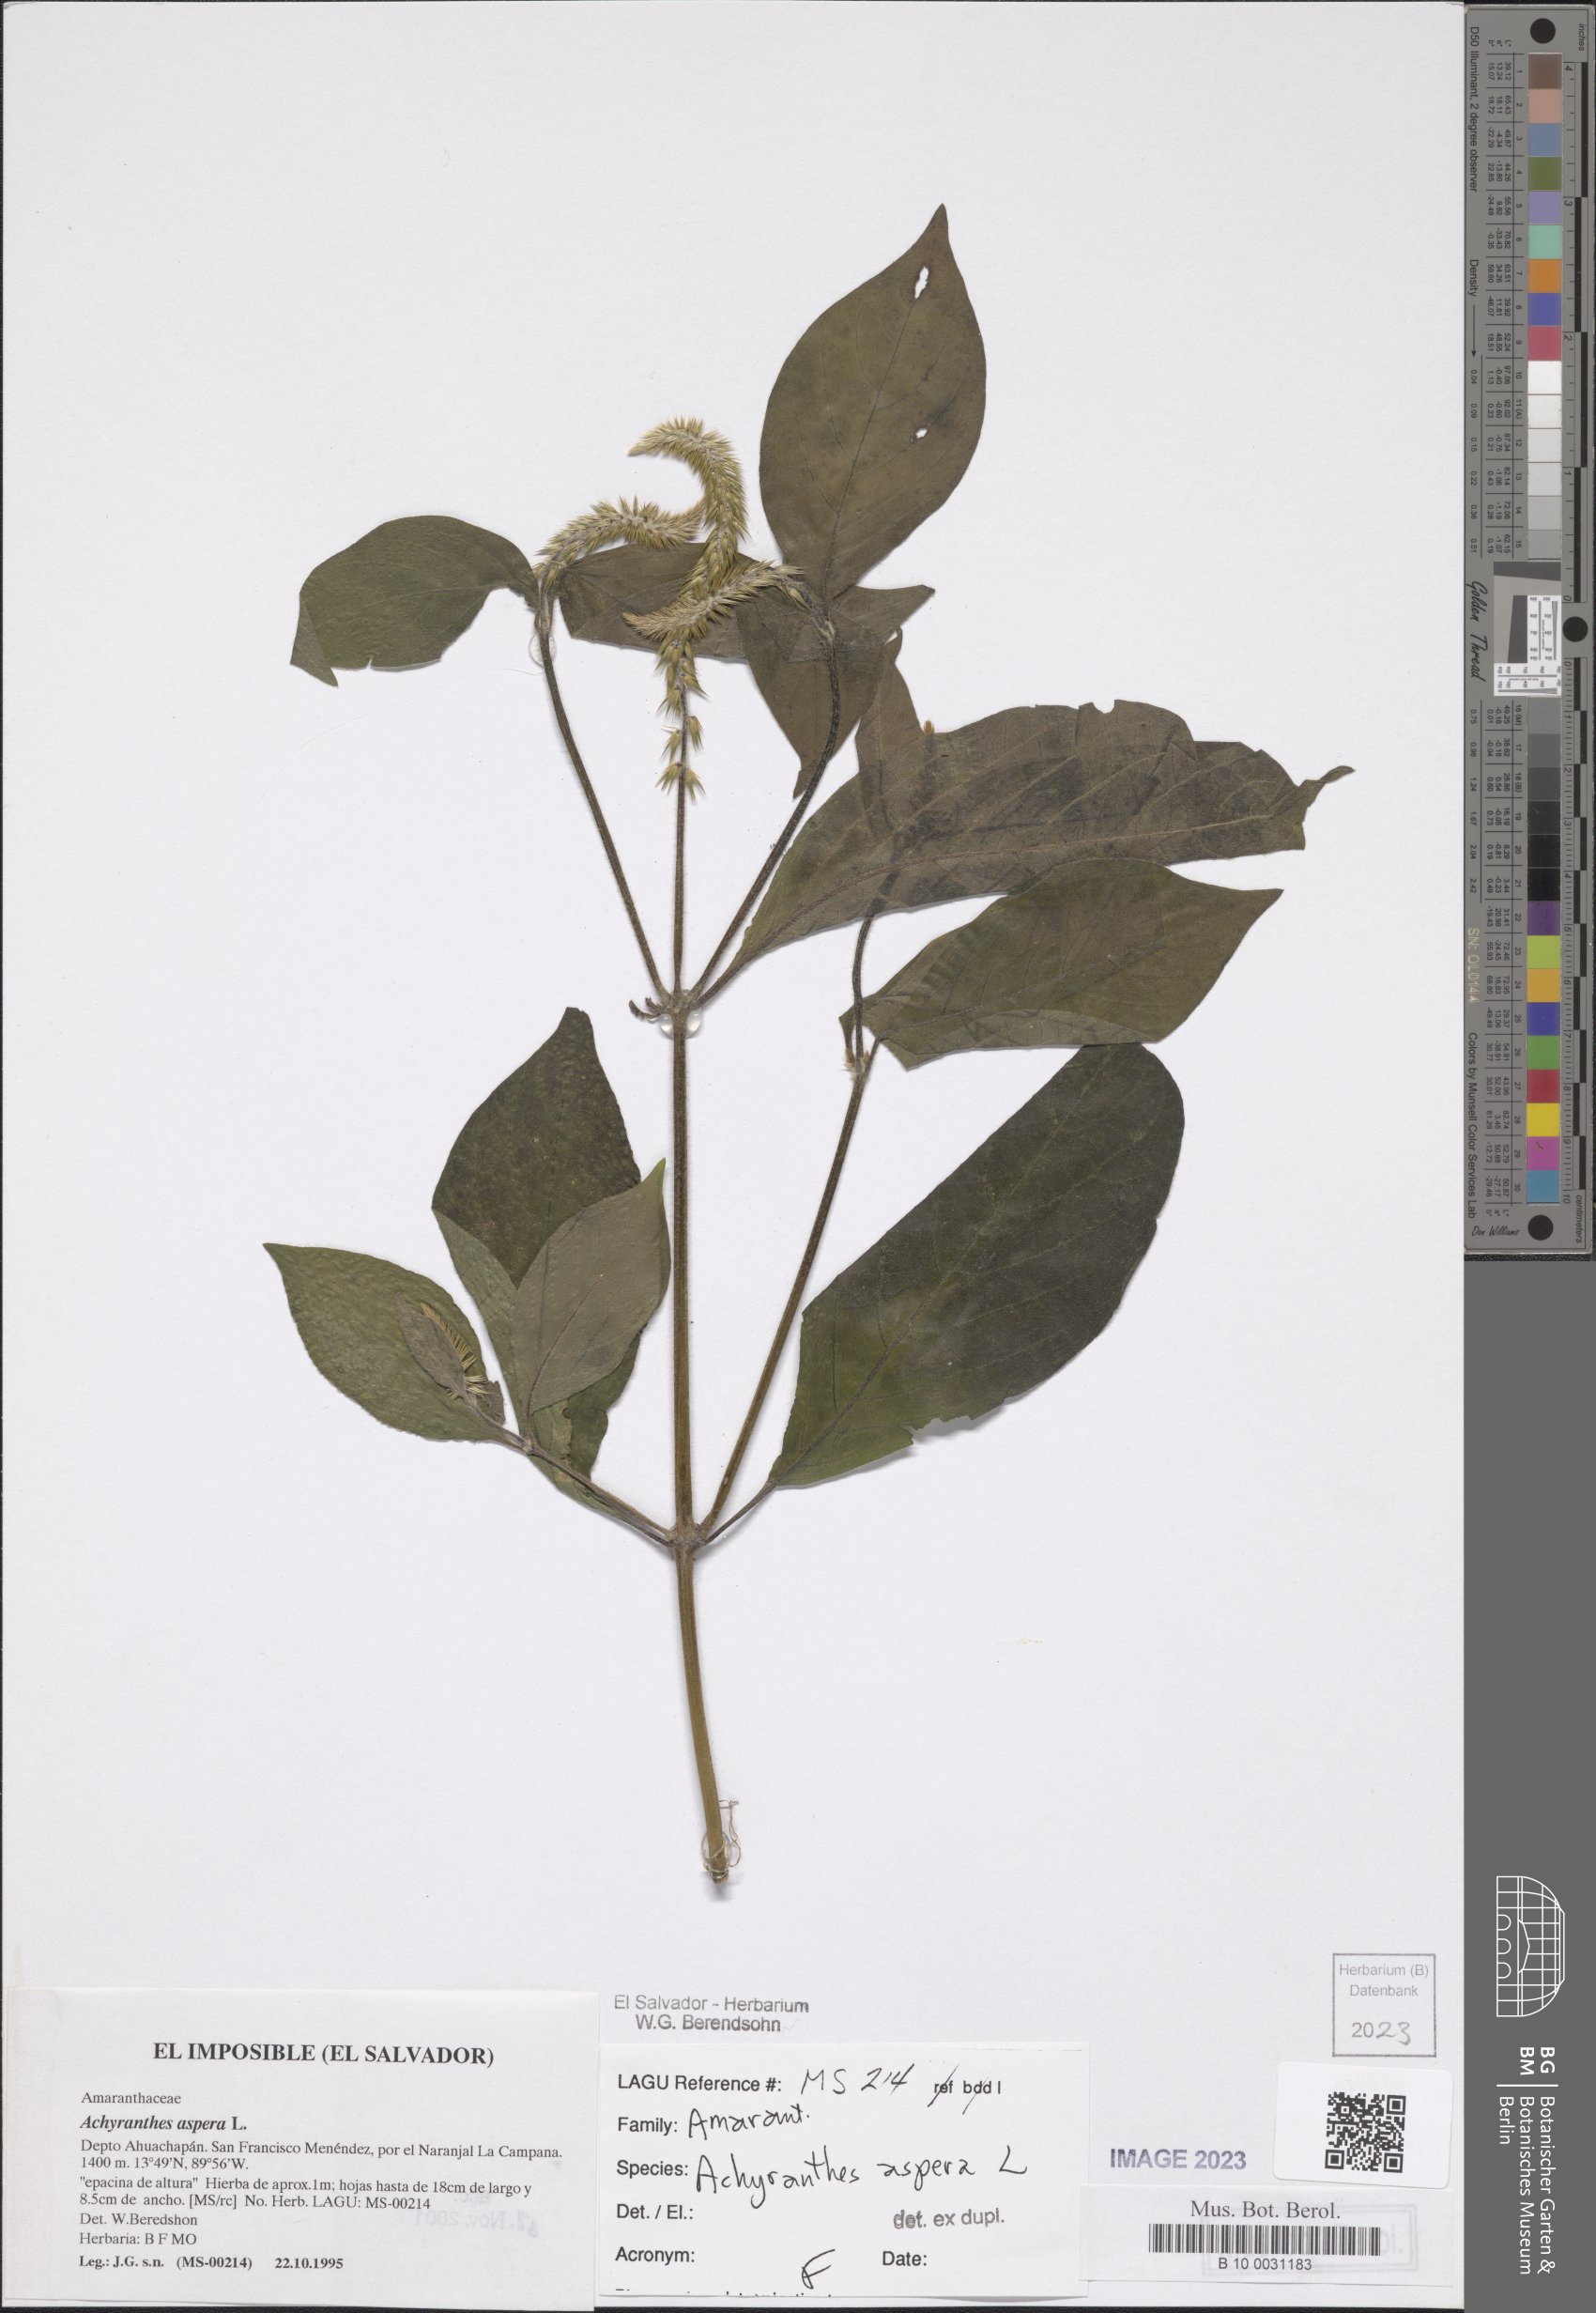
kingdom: Plantae
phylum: Tracheophyta
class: Magnoliopsida
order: Caryophyllales
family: Amaranthaceae
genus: Achyranthes
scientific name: Achyranthes aspera
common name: Devil's horsewhip
